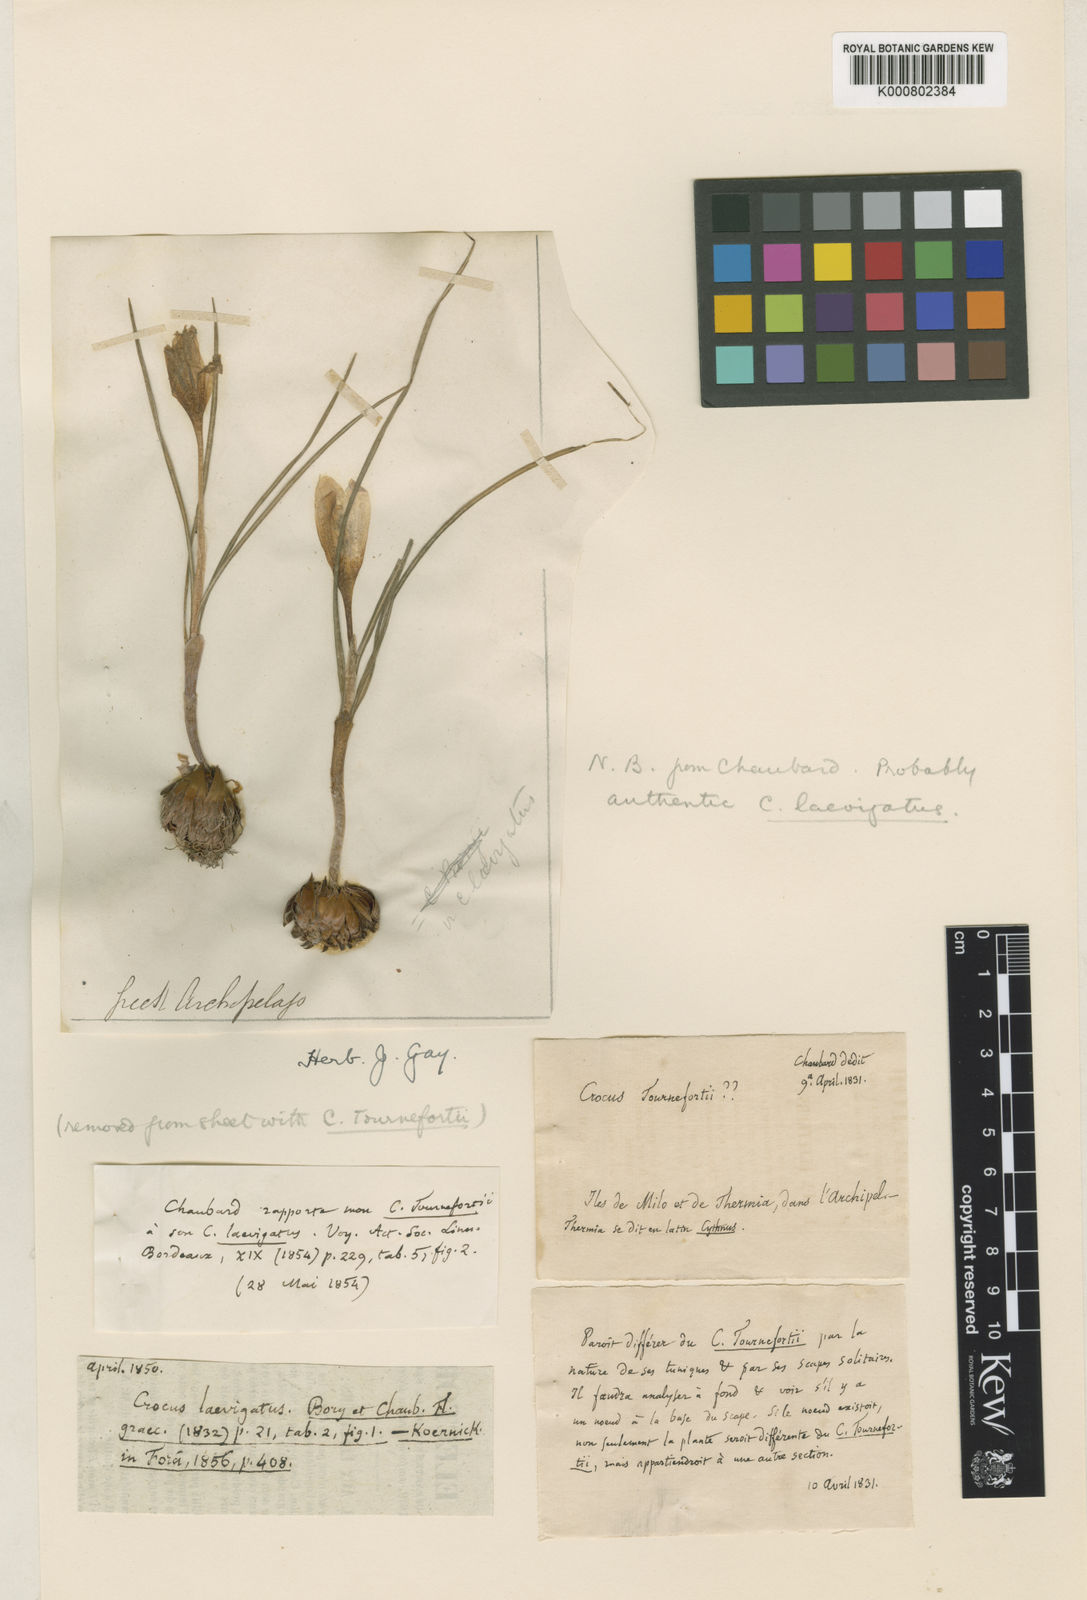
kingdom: Plantae
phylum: Tracheophyta
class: Liliopsida
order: Asparagales
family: Iridaceae
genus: Crocus
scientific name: Crocus laevigatus
